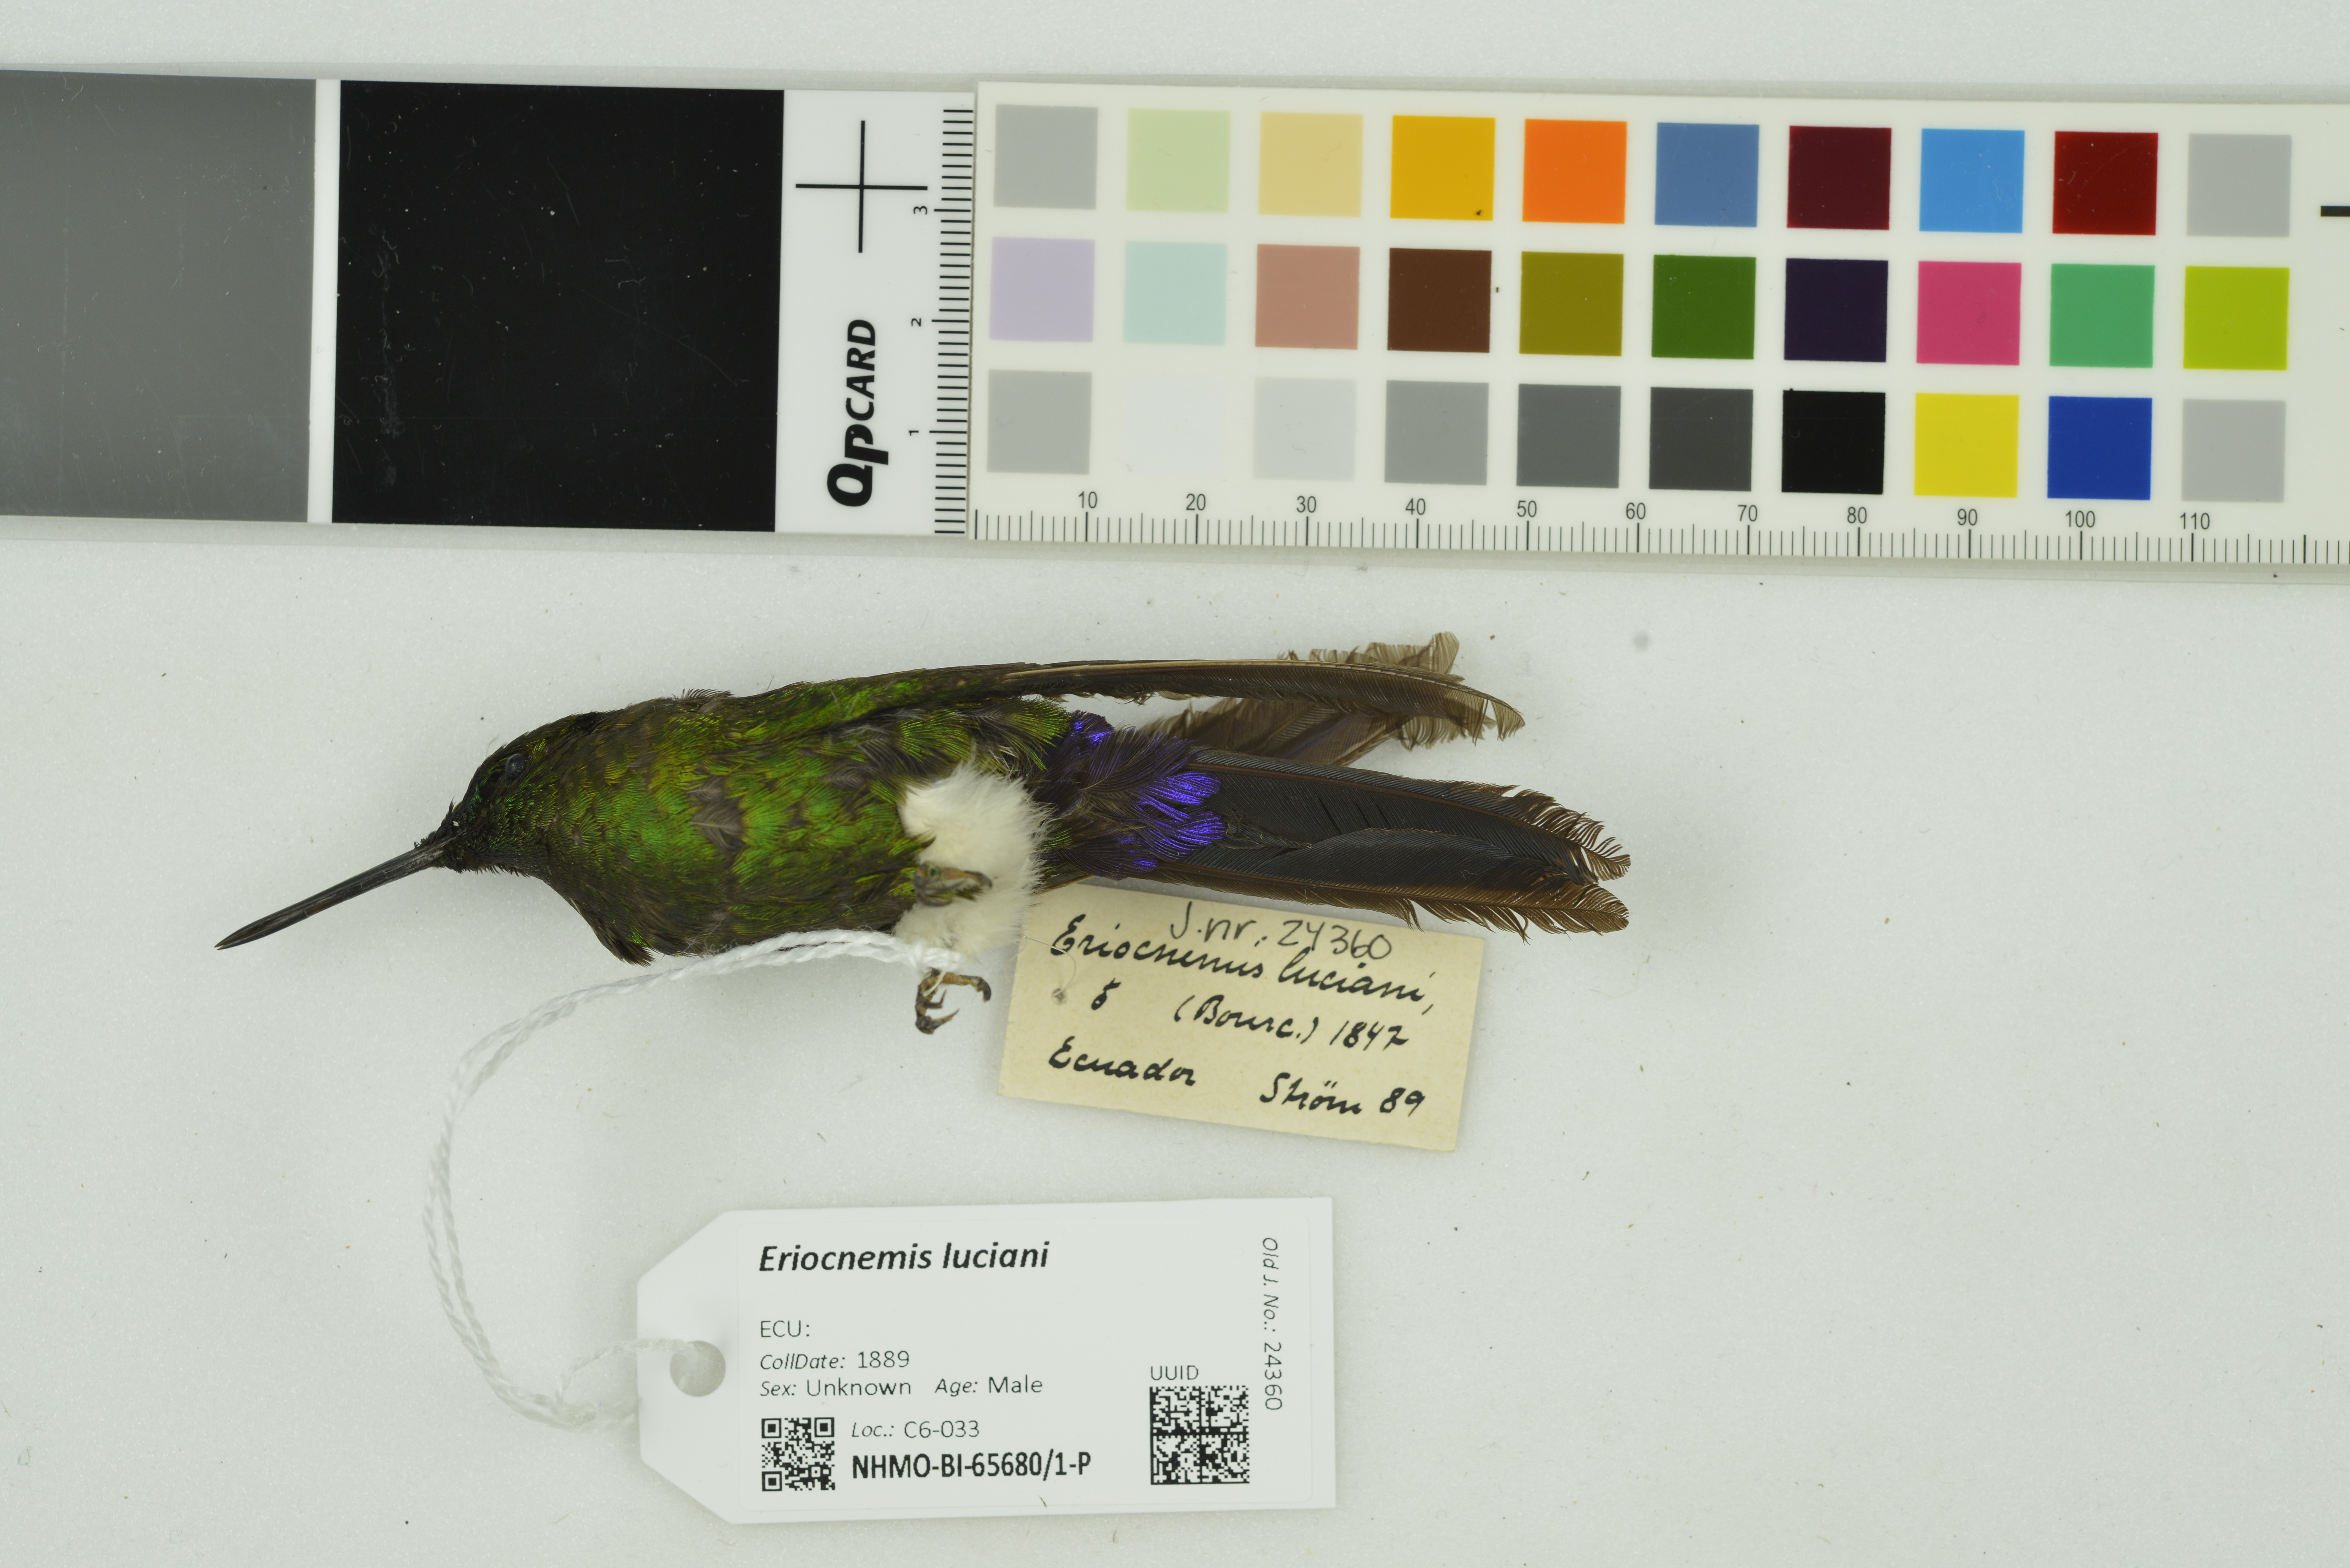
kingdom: Animalia
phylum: Chordata
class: Aves
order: Apodiformes
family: Trochilidae
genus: Eriocnemis
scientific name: Eriocnemis luciani
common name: Sapphire-vented puffleg
